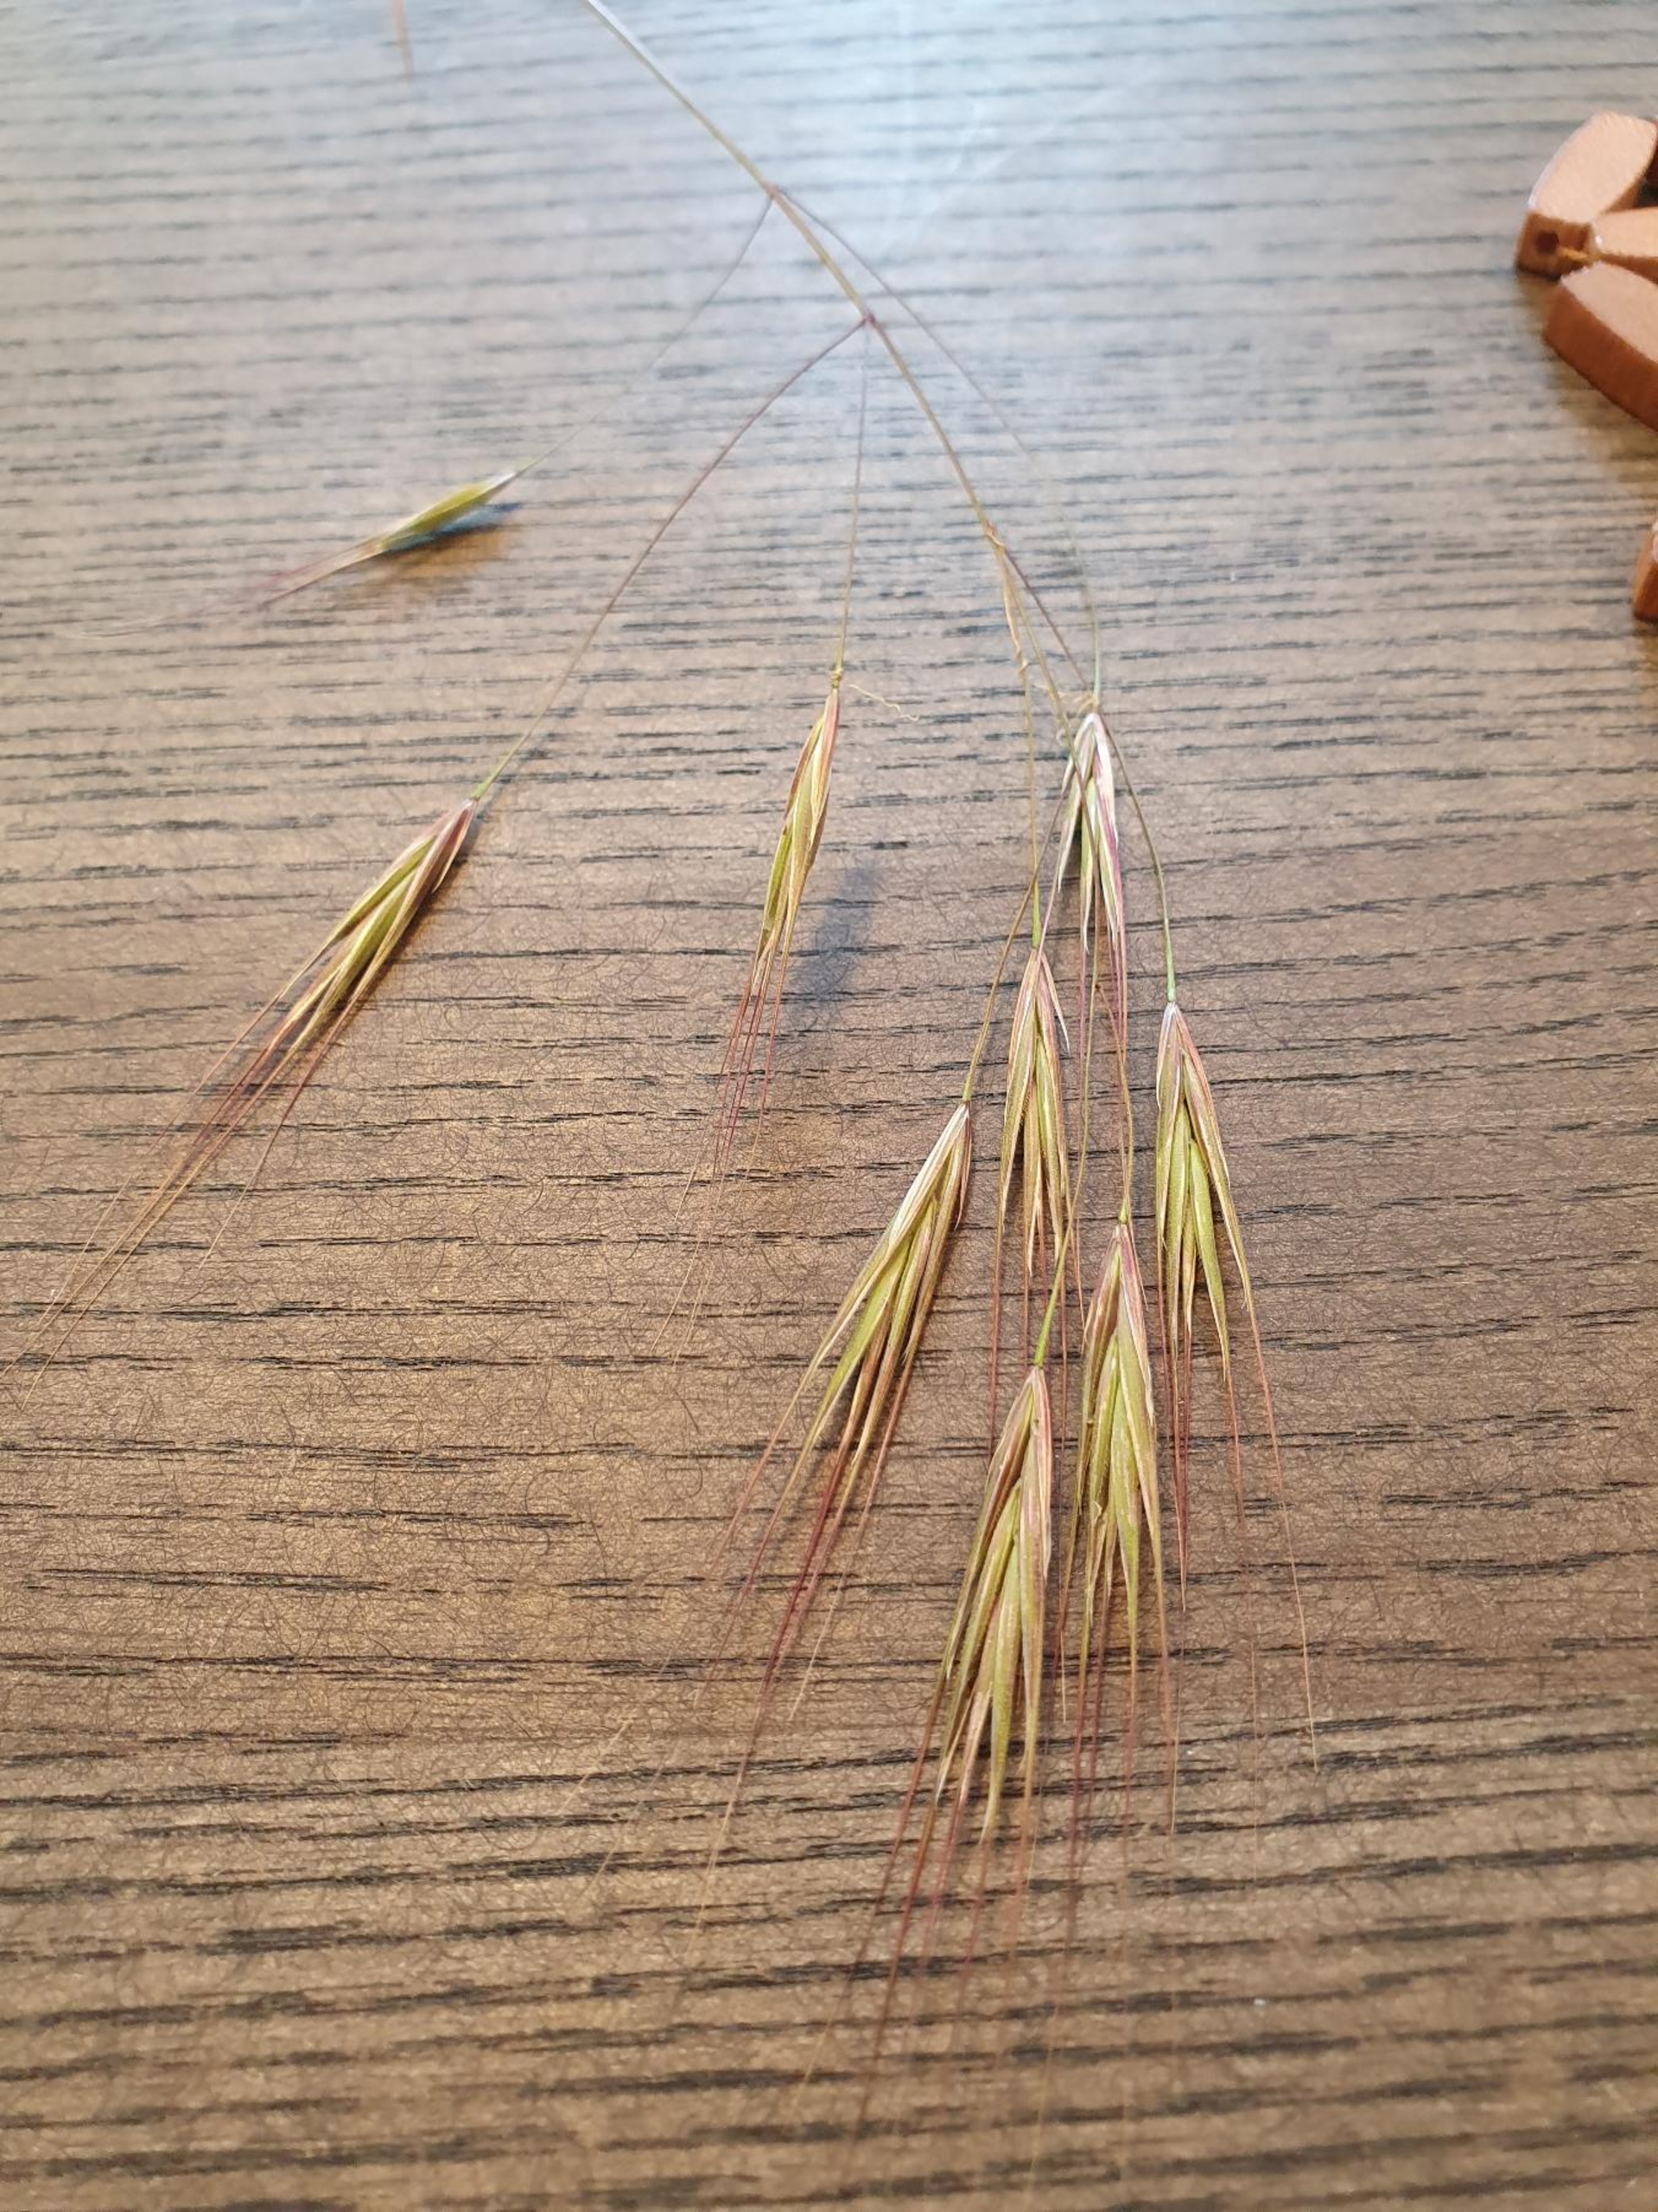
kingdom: Plantae
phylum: Tracheophyta
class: Liliopsida
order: Poales
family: Poaceae
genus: Bromus
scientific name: Bromus sterilis
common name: Gold hejre
